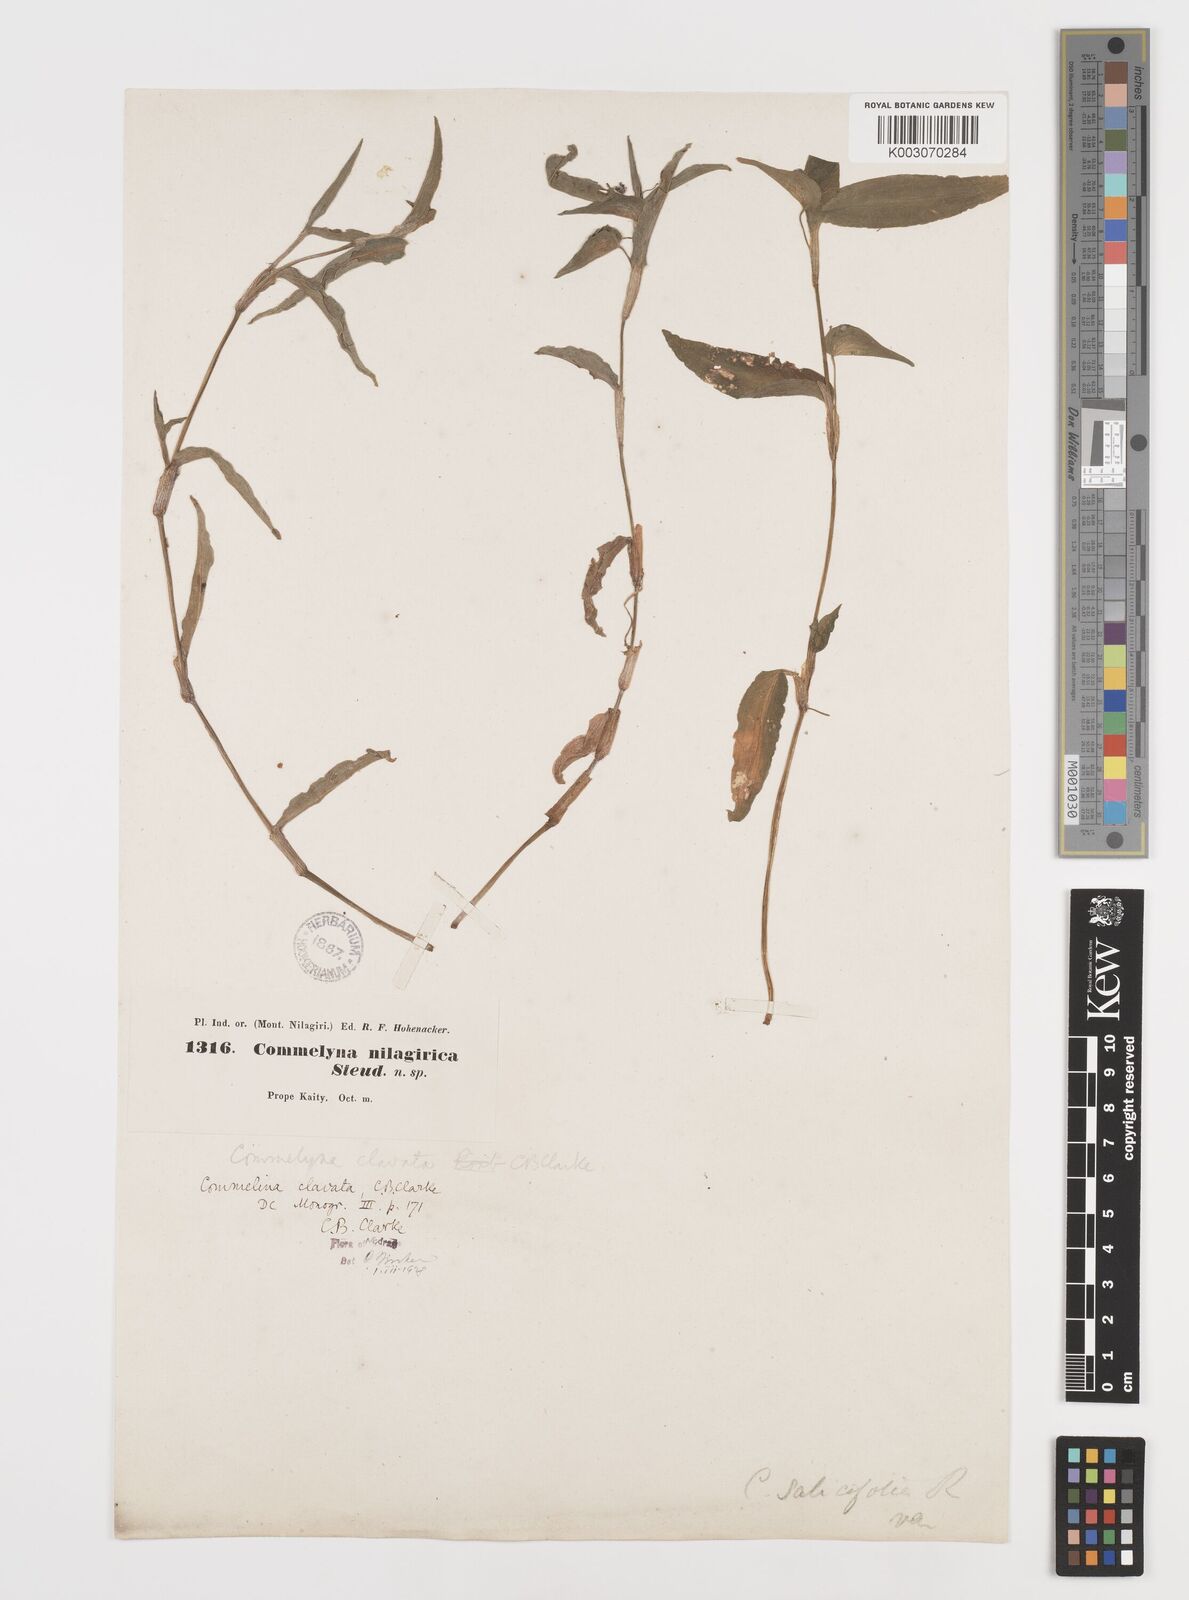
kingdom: Plantae
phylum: Tracheophyta
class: Liliopsida
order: Commelinales
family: Commelinaceae
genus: Commelina
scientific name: Commelina clavata
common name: Willow leaved dayflower
